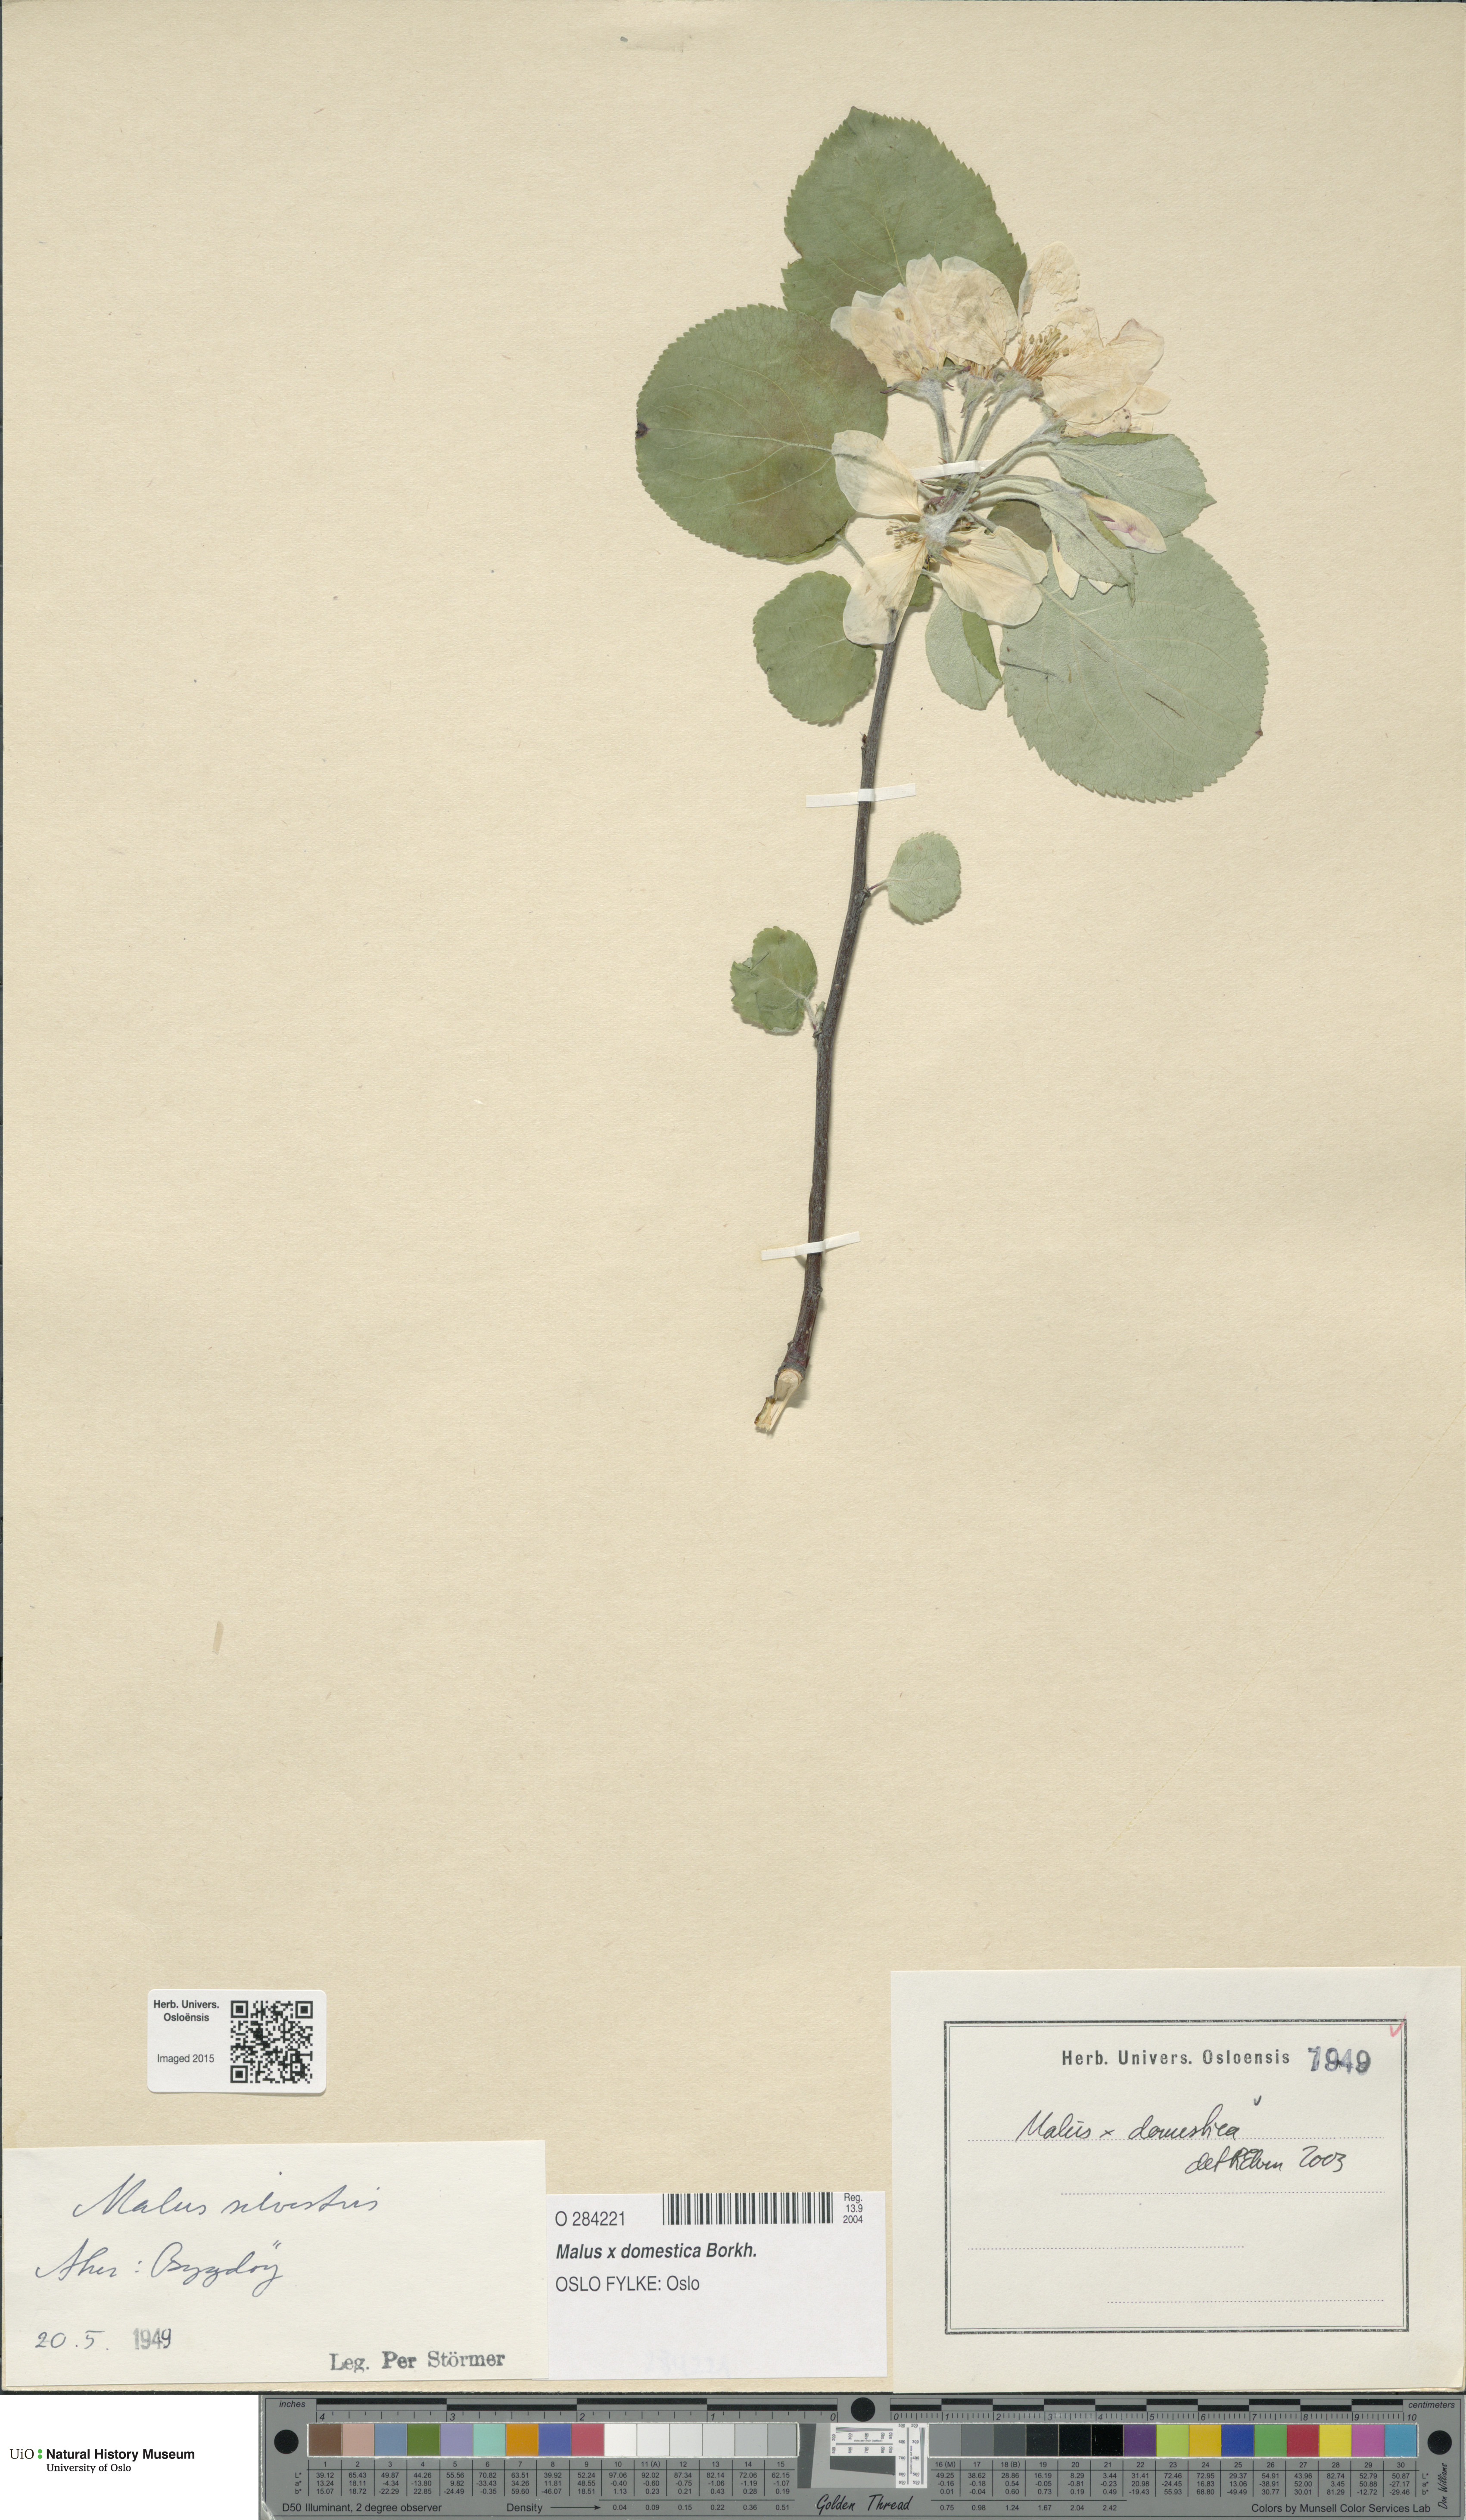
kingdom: Plantae
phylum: Tracheophyta
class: Magnoliopsida
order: Rosales
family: Rosaceae
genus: Malus
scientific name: Malus domestica
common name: Apple
